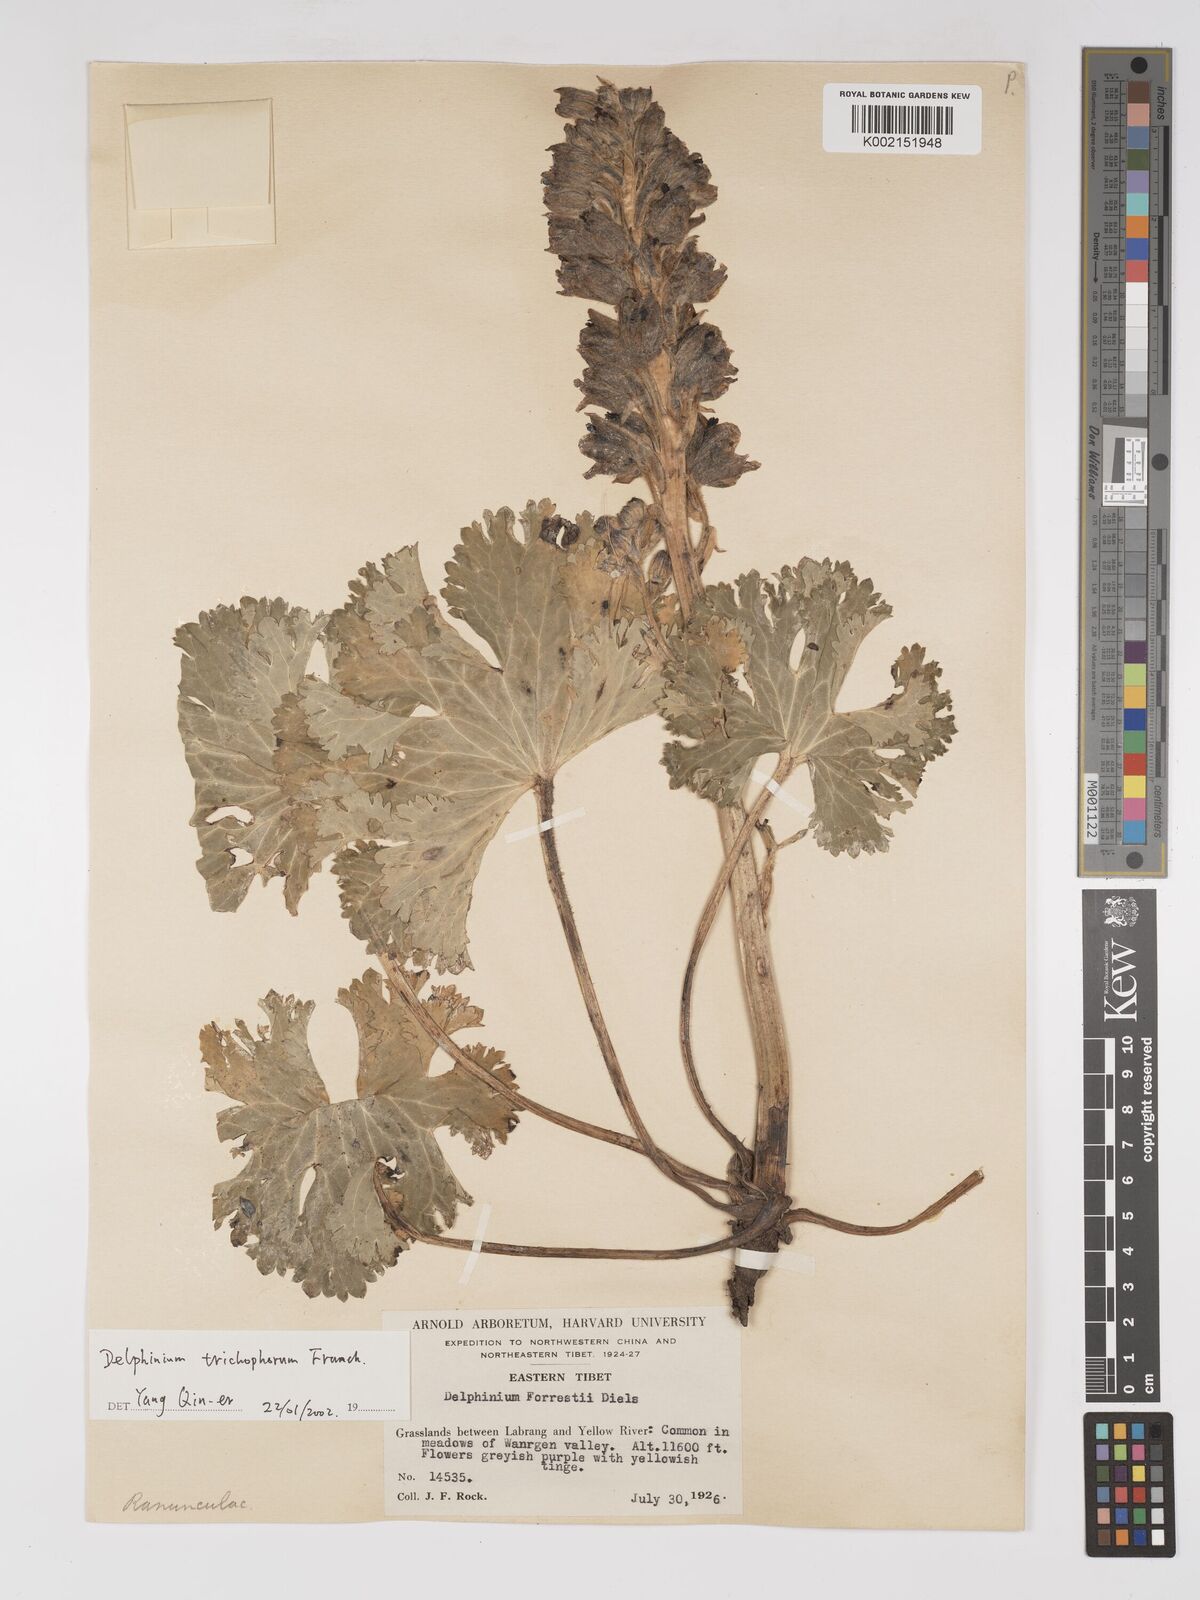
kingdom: Plantae
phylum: Tracheophyta
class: Magnoliopsida
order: Ranunculales
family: Ranunculaceae
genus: Delphinium
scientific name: Delphinium trichophorum
